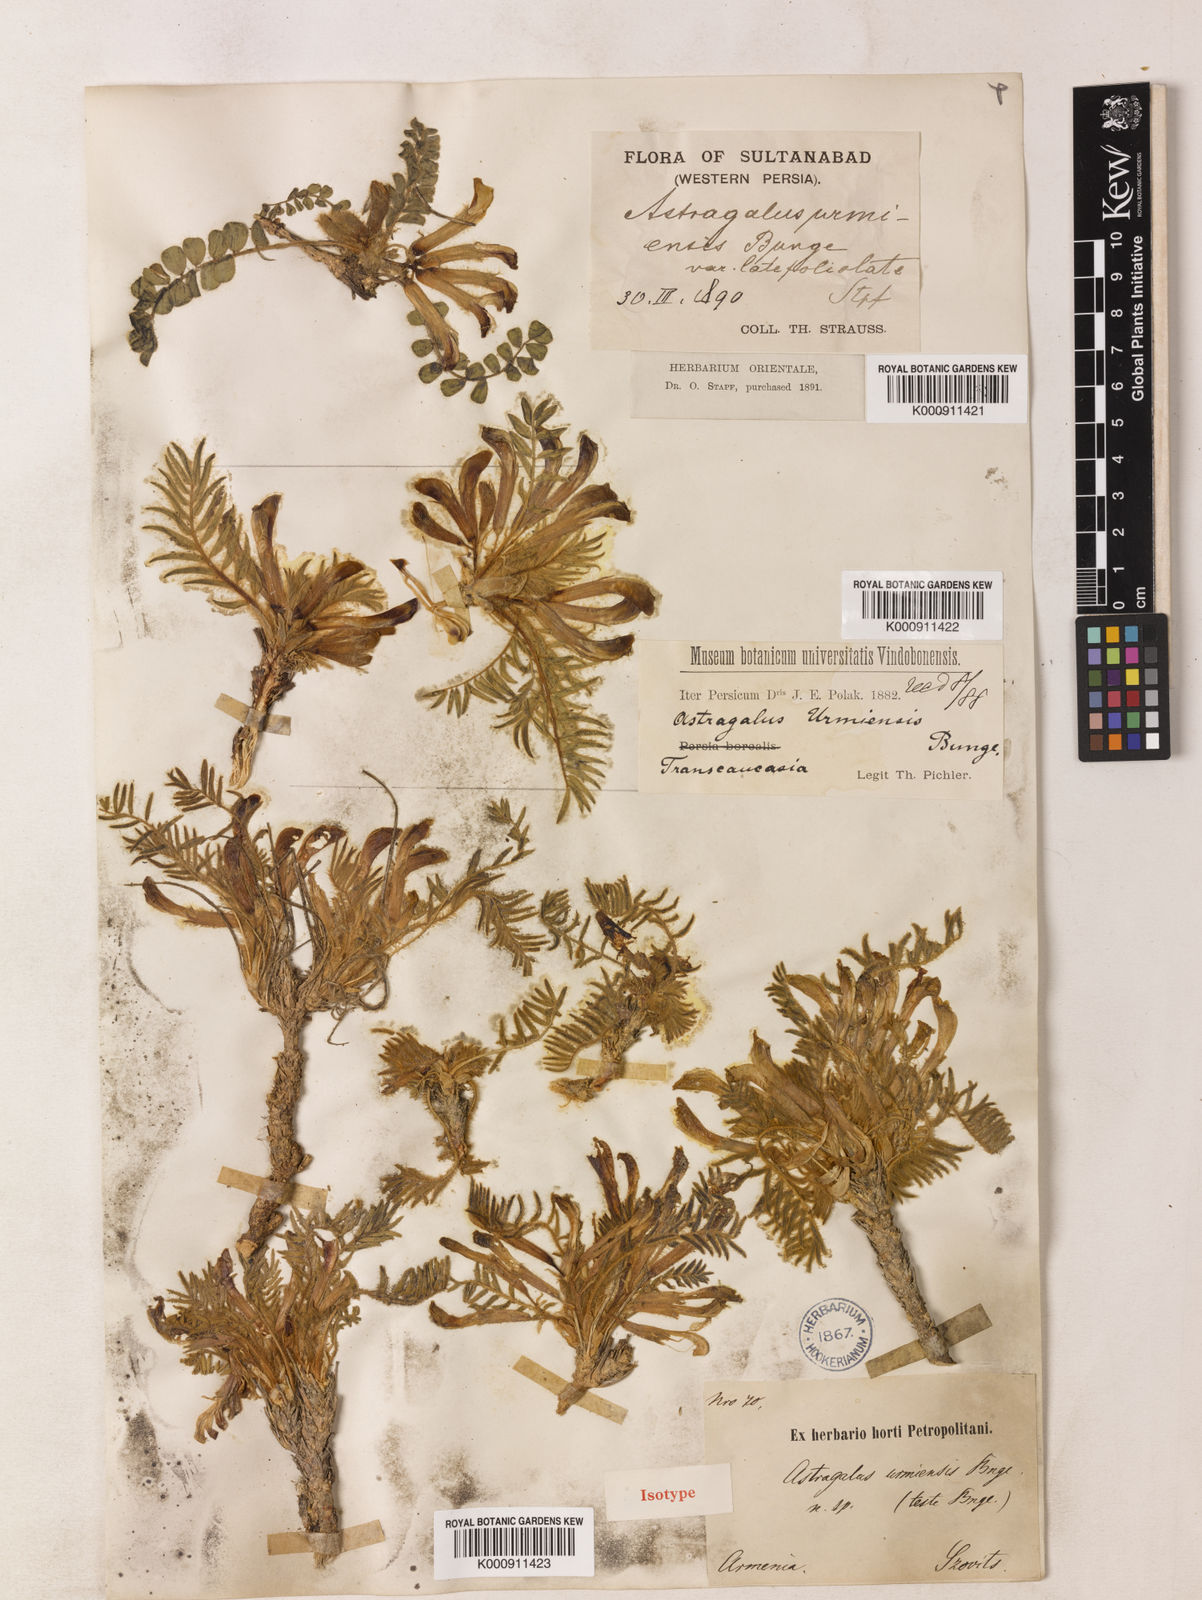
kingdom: Plantae
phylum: Tracheophyta
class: Magnoliopsida
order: Fabales
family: Fabaceae
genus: Astragalus
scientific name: Astragalus urmiensis
